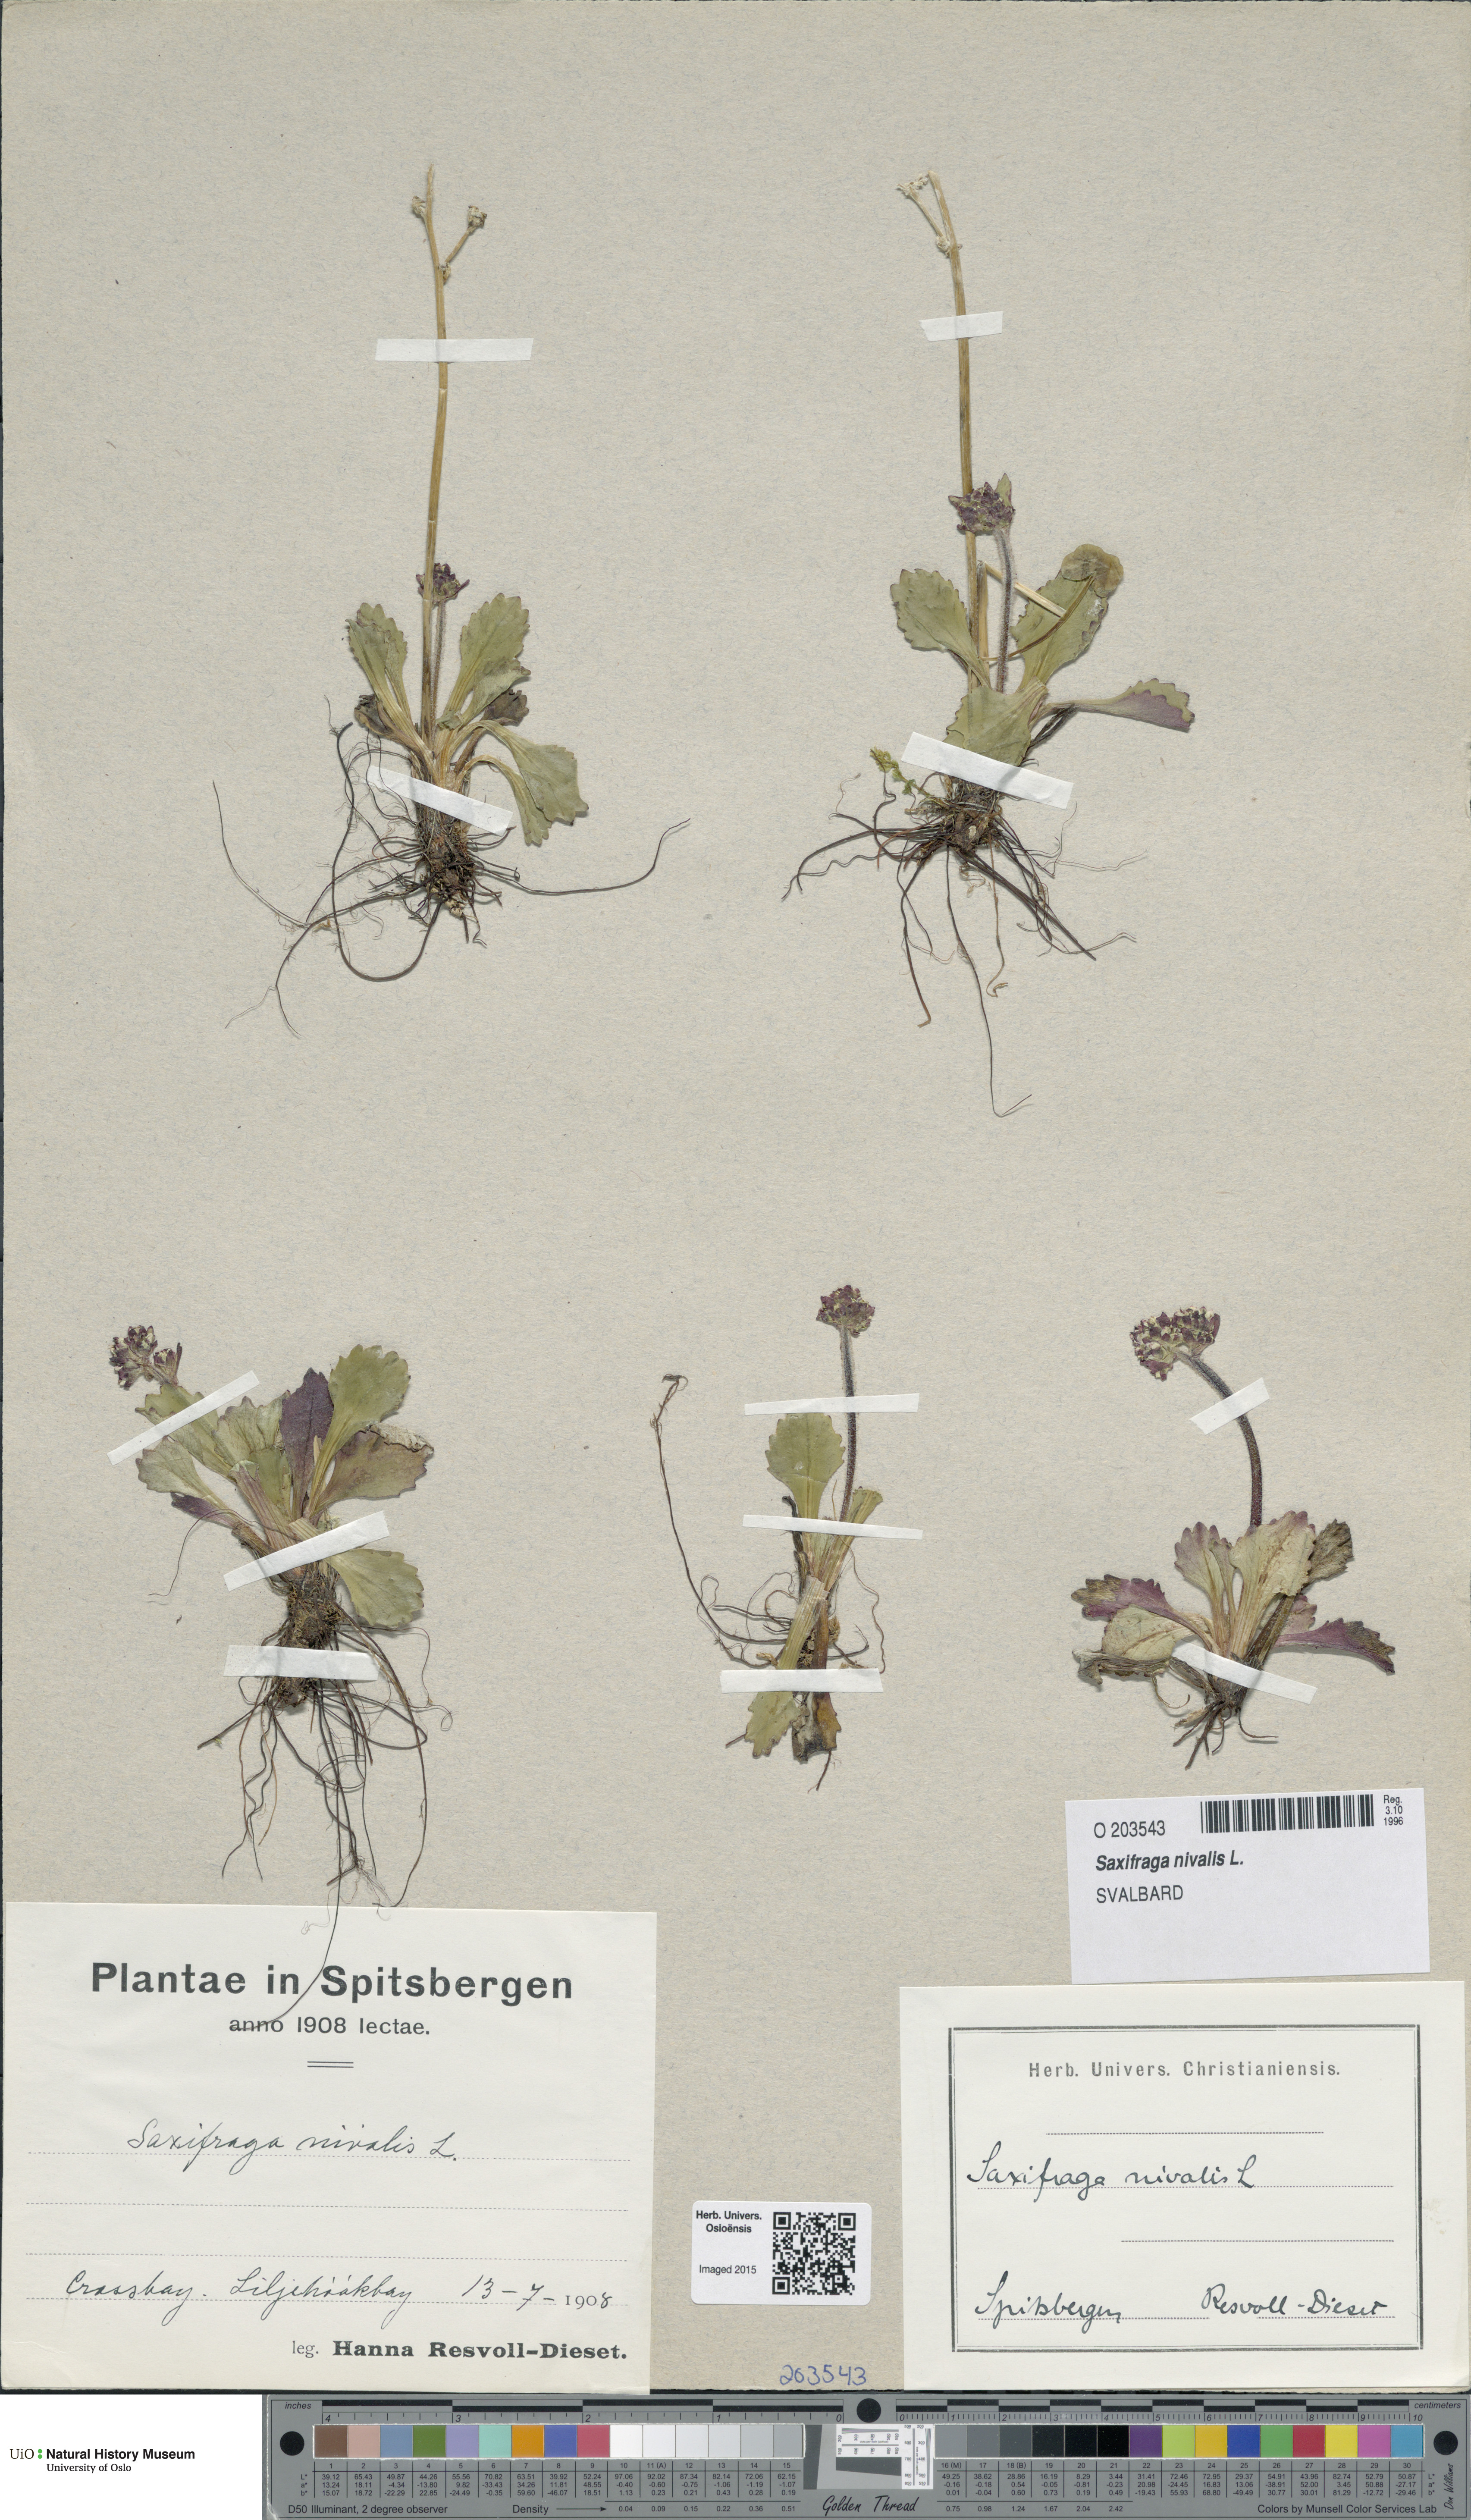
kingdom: Plantae
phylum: Tracheophyta
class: Magnoliopsida
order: Saxifragales
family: Saxifragaceae
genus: Micranthes
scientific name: Micranthes nivalis
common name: Alpine saxifrage
